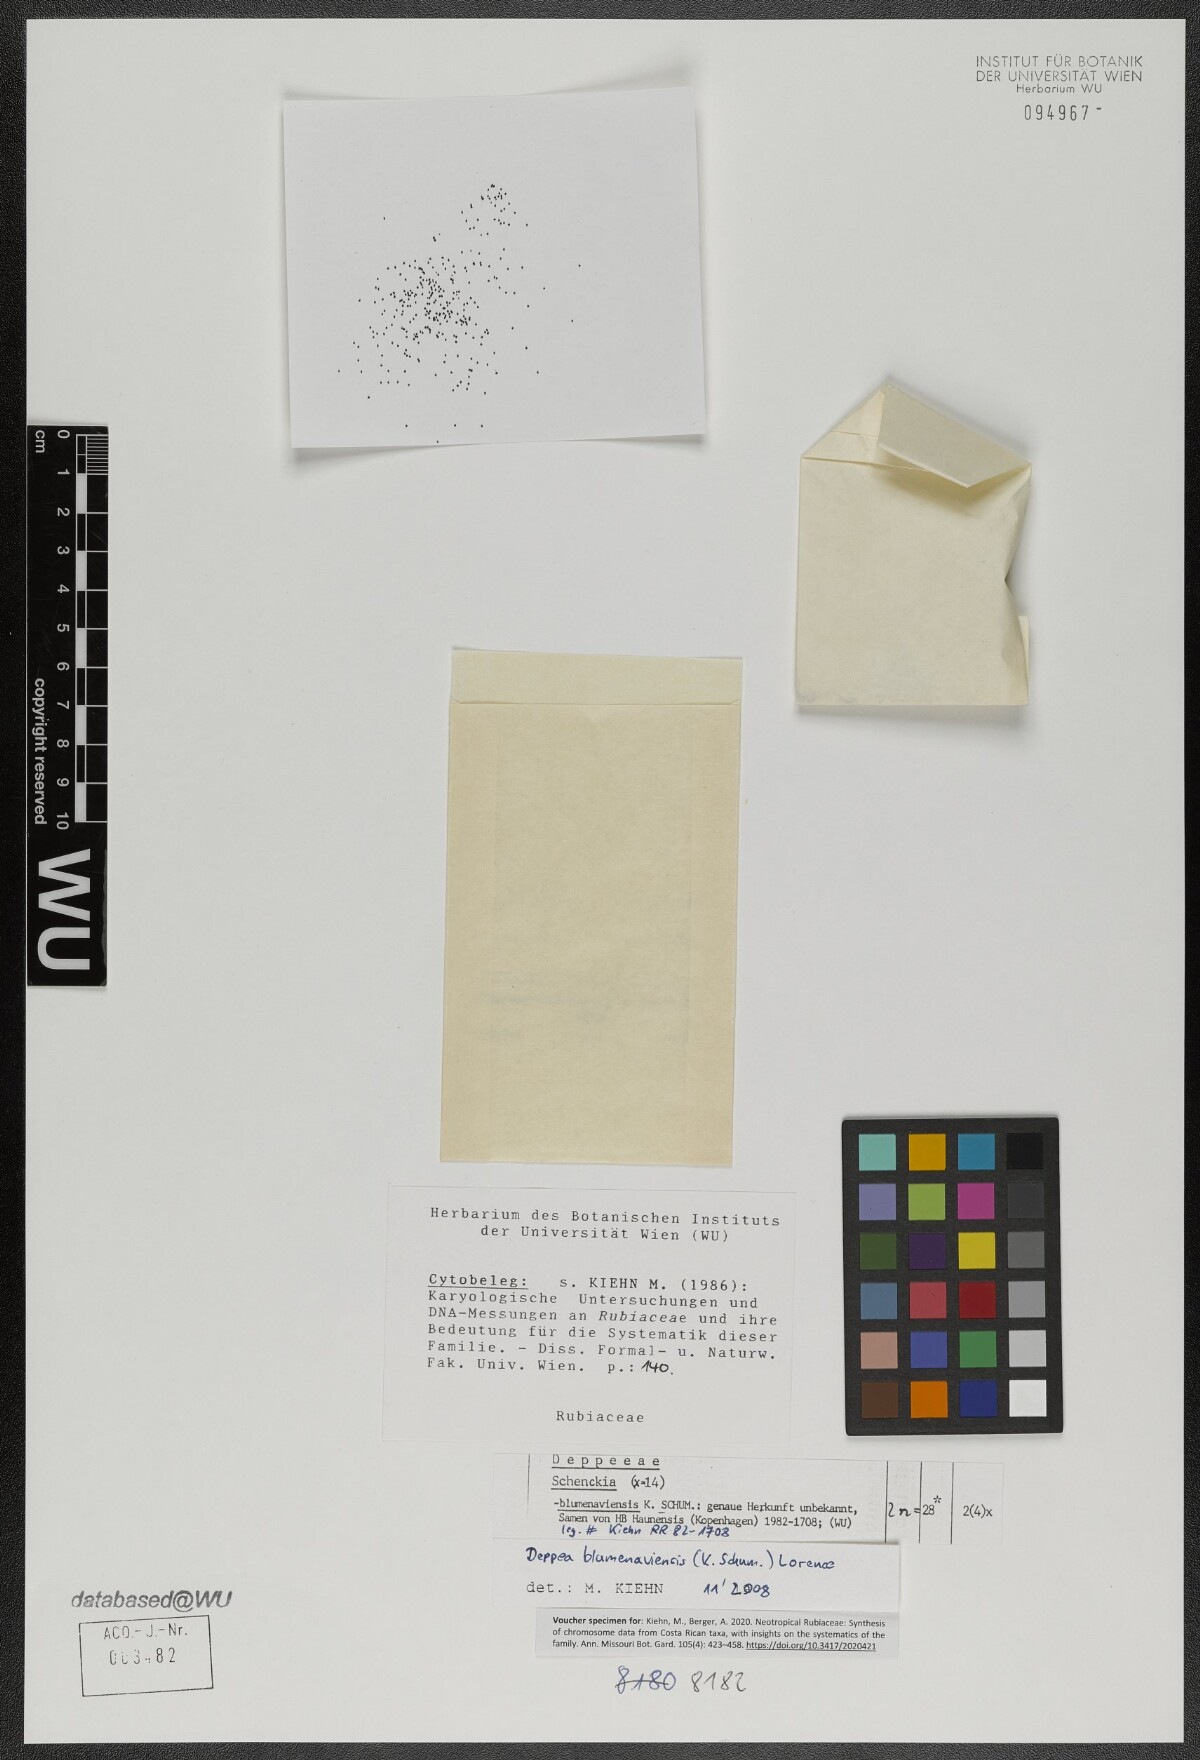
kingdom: Plantae
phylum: Tracheophyta
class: Magnoliopsida
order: Gentianales
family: Rubiaceae
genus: Deppea
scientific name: Deppea blumenaviensis
